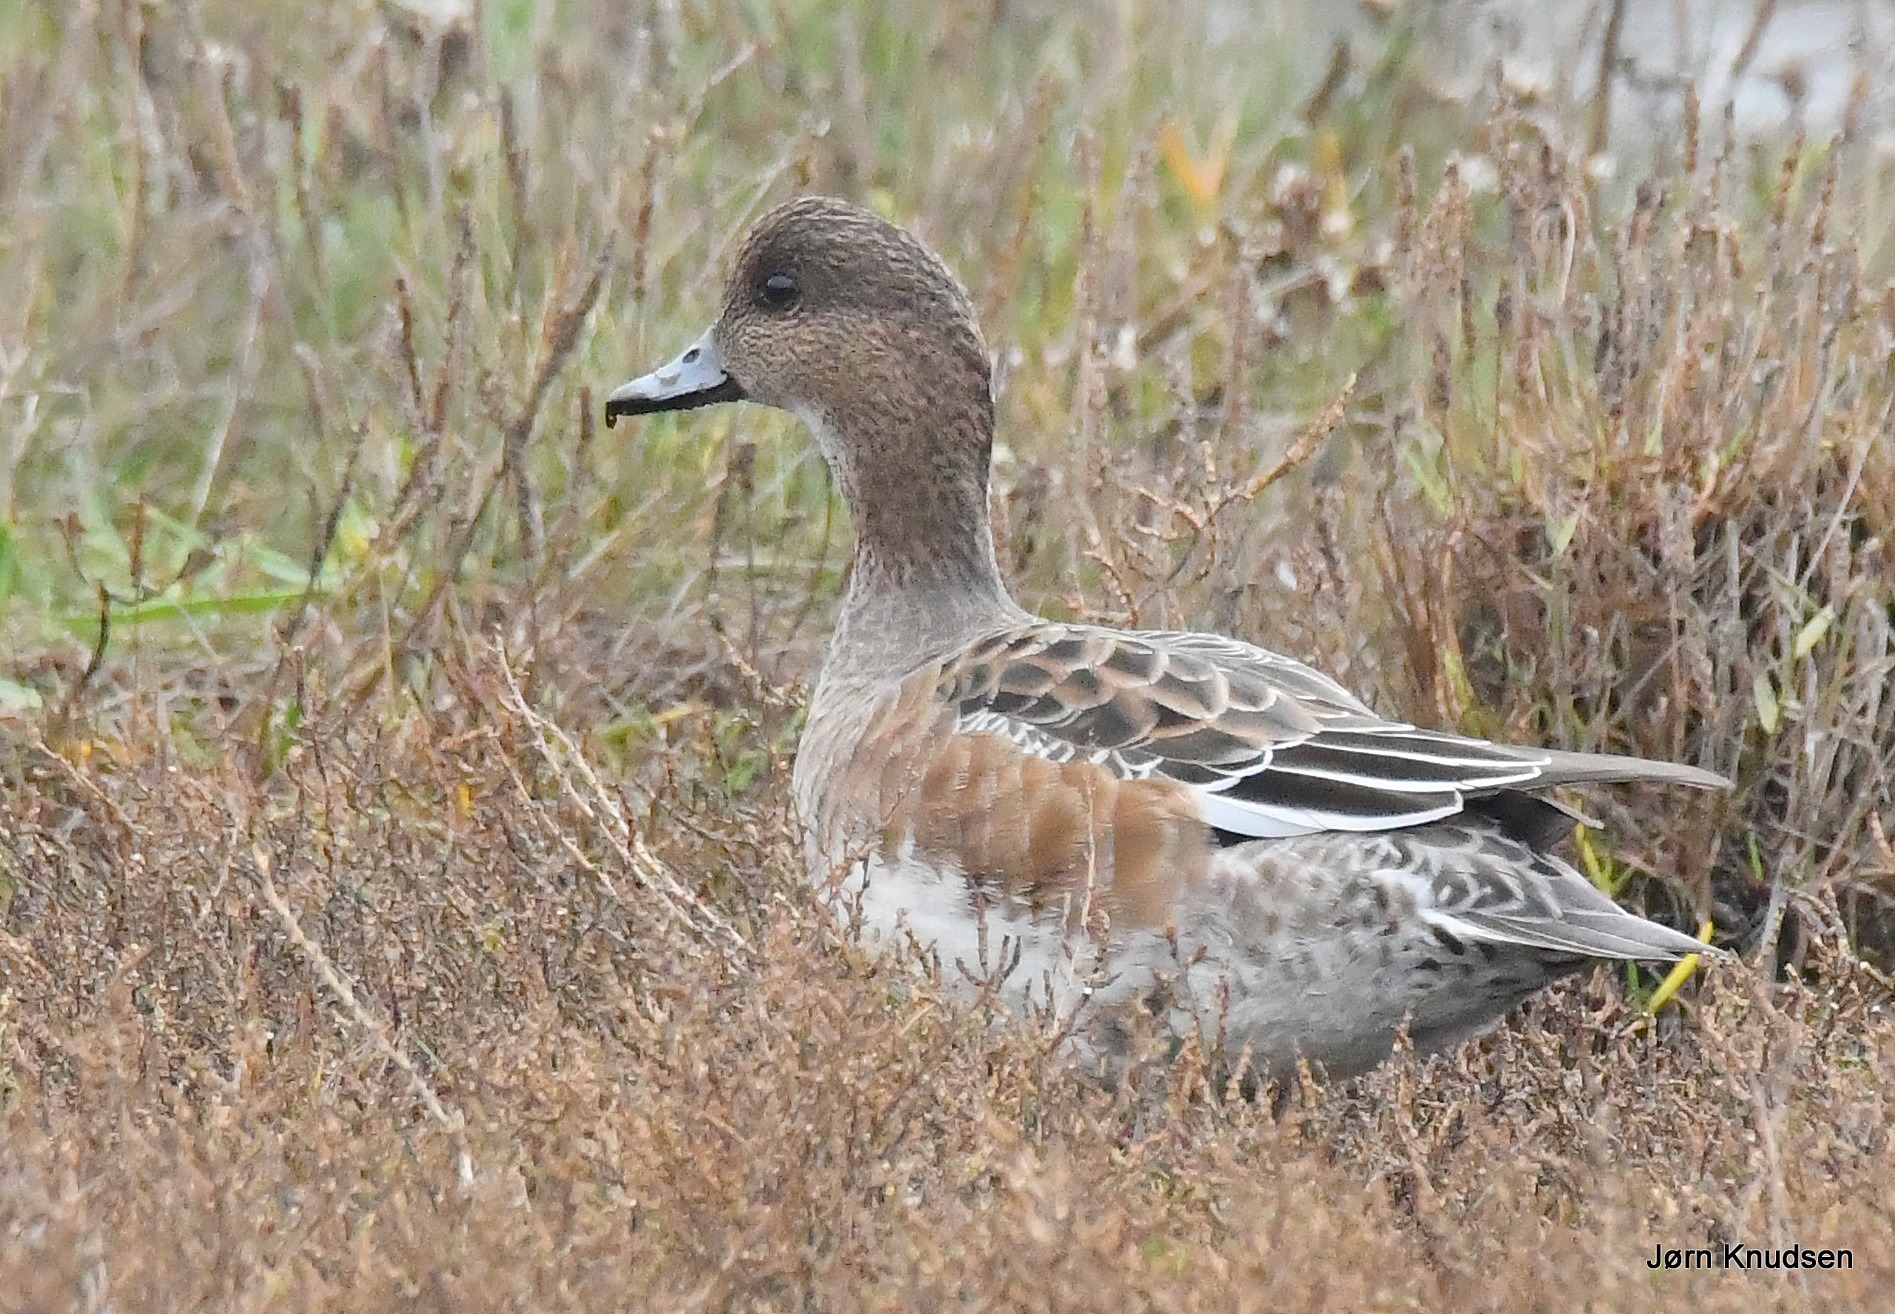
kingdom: Animalia
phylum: Chordata
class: Aves
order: Anseriformes
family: Anatidae
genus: Mareca
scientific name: Mareca penelope
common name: Pibeand
